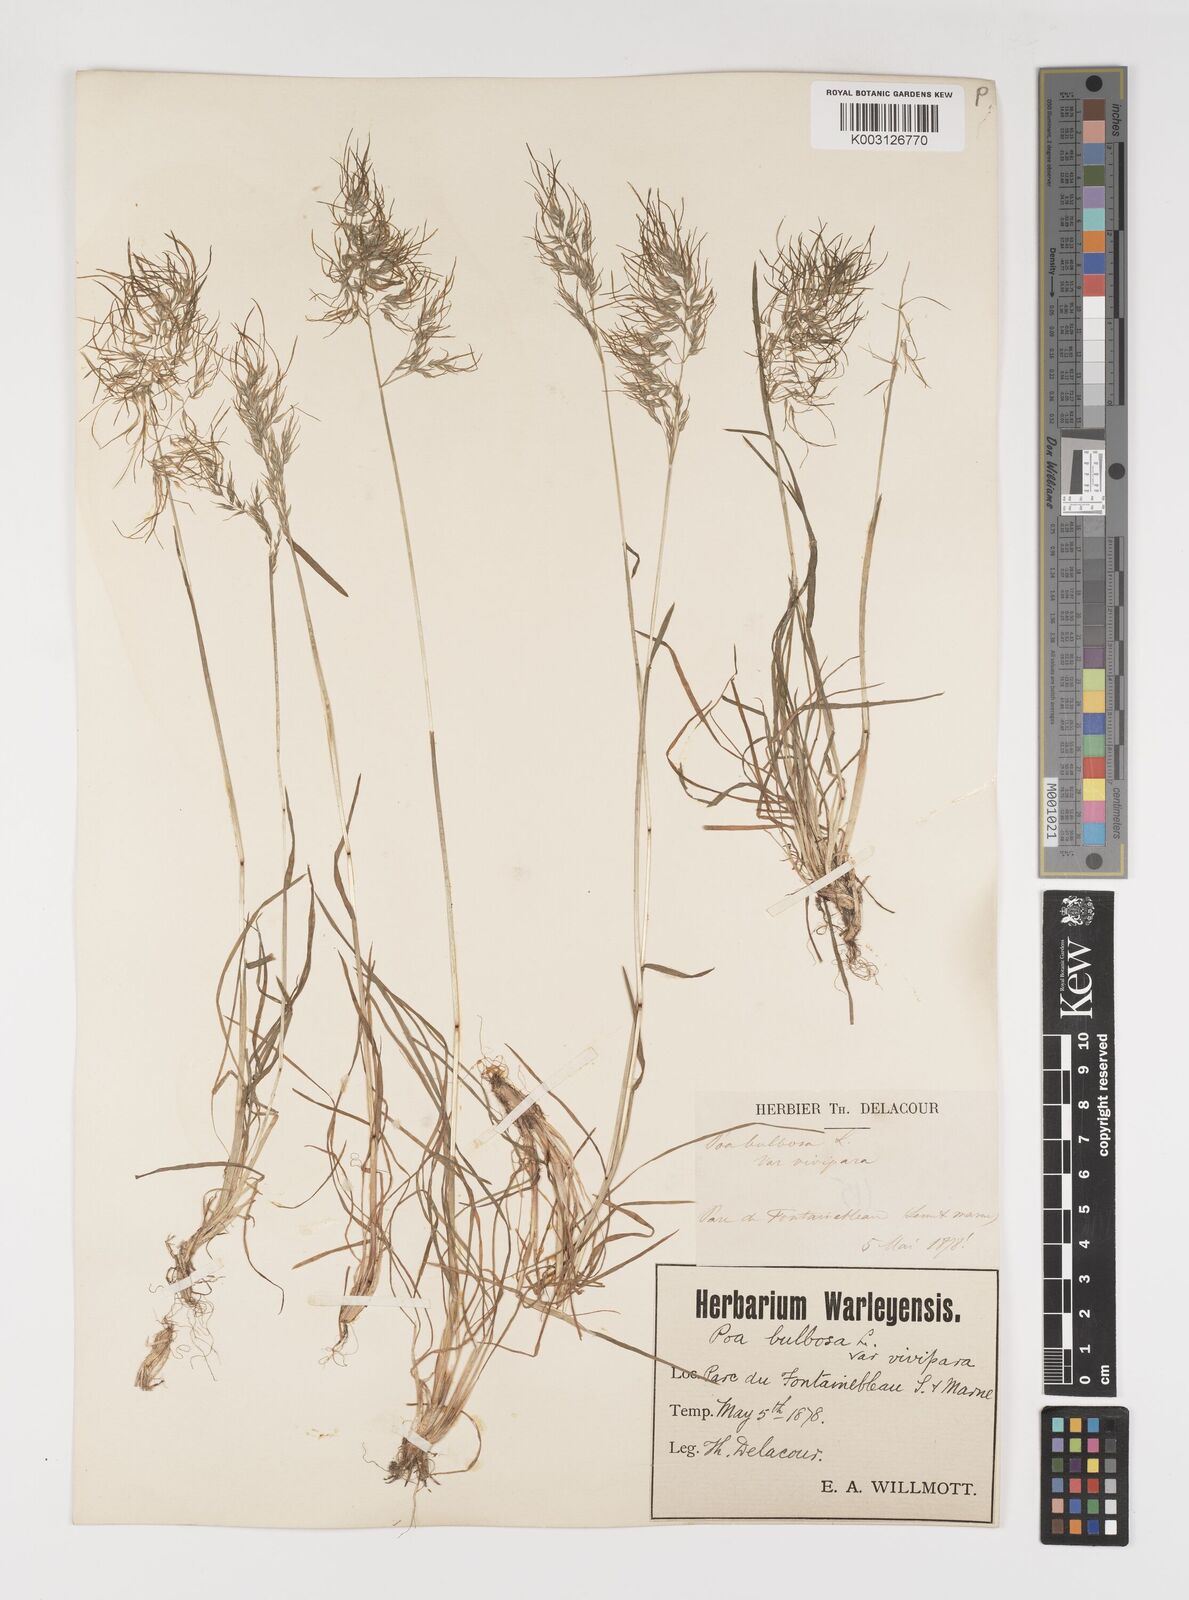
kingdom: Plantae
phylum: Tracheophyta
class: Liliopsida
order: Poales
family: Poaceae
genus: Poa
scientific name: Poa bulbosa
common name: Bulbous bluegrass
